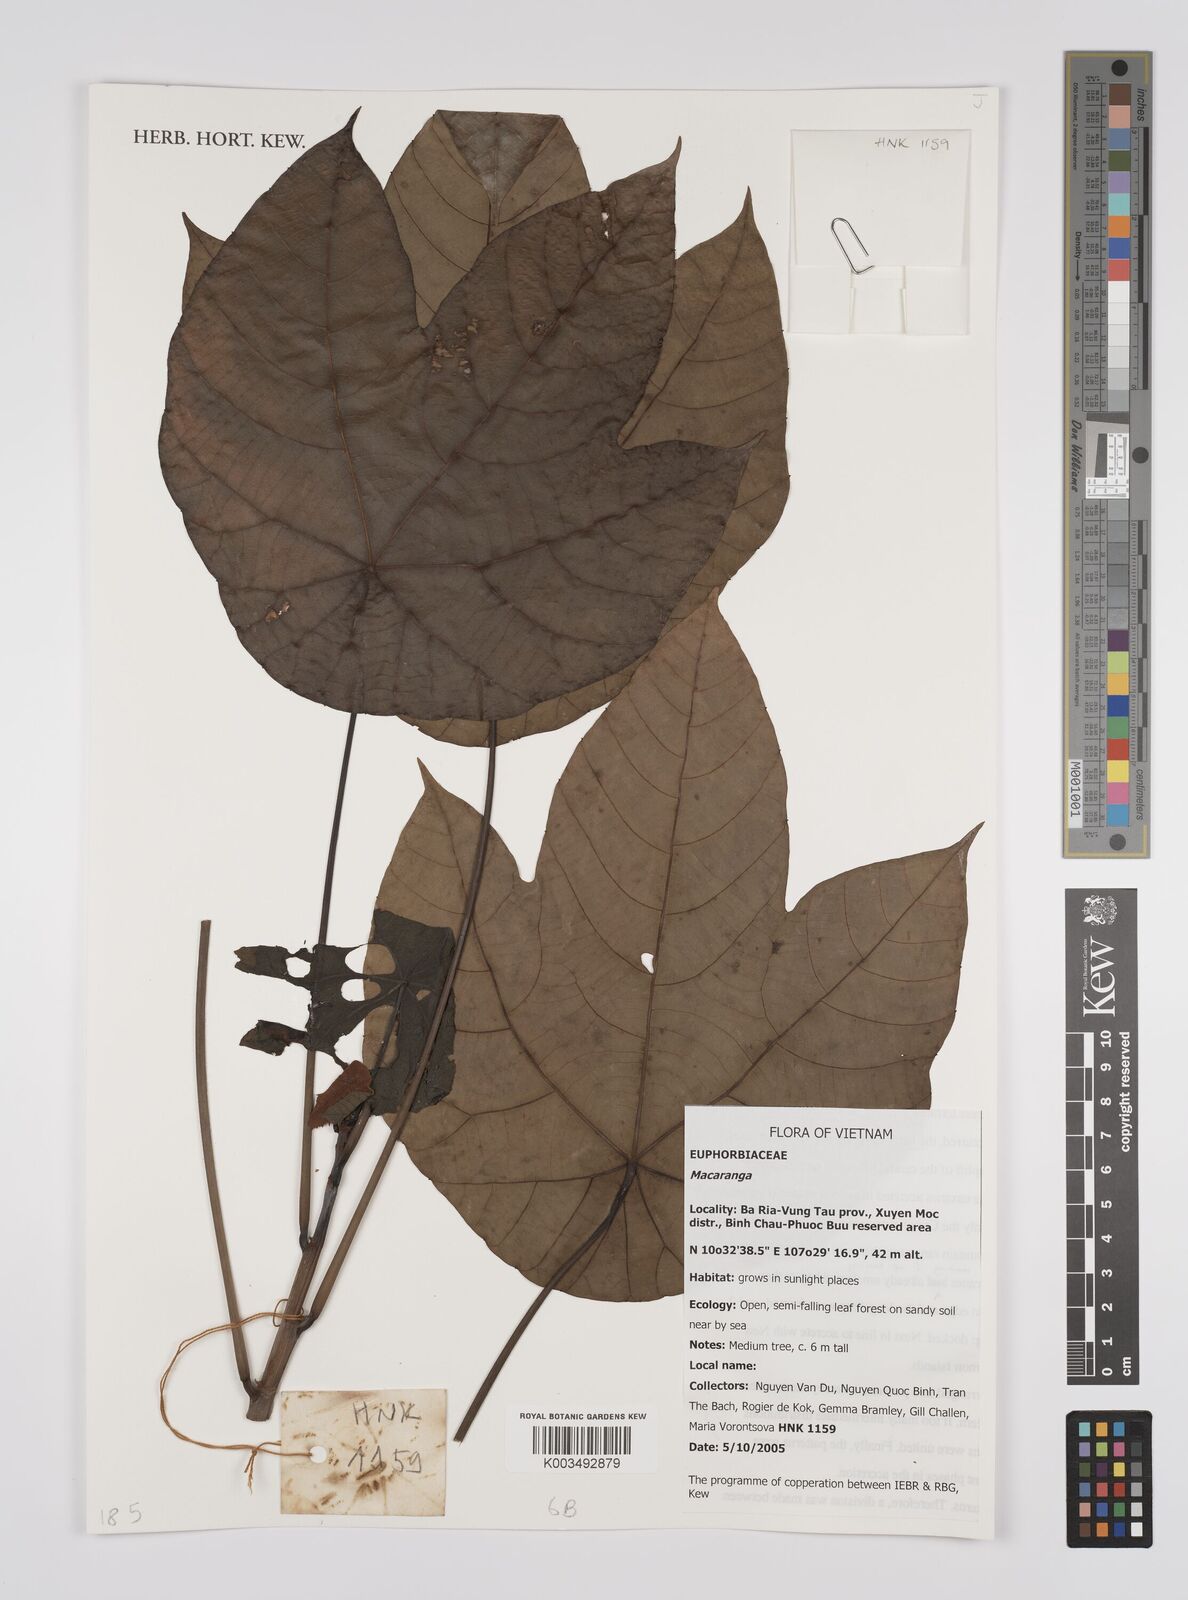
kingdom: Plantae
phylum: Tracheophyta
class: Magnoliopsida
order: Malpighiales
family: Euphorbiaceae
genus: Macaranga
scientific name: Macaranga
